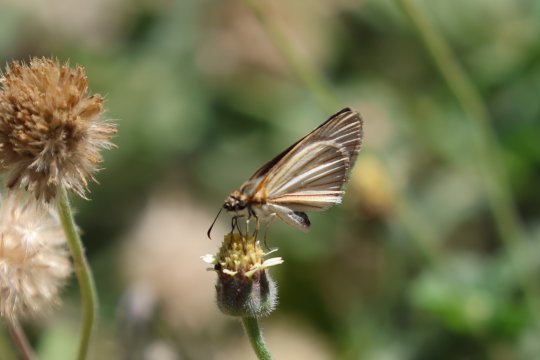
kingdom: Animalia
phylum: Arthropoda
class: Insecta
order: Lepidoptera
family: Hesperiidae
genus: Heliopetes
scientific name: Heliopetes arsalte
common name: Veined White-Skipper
